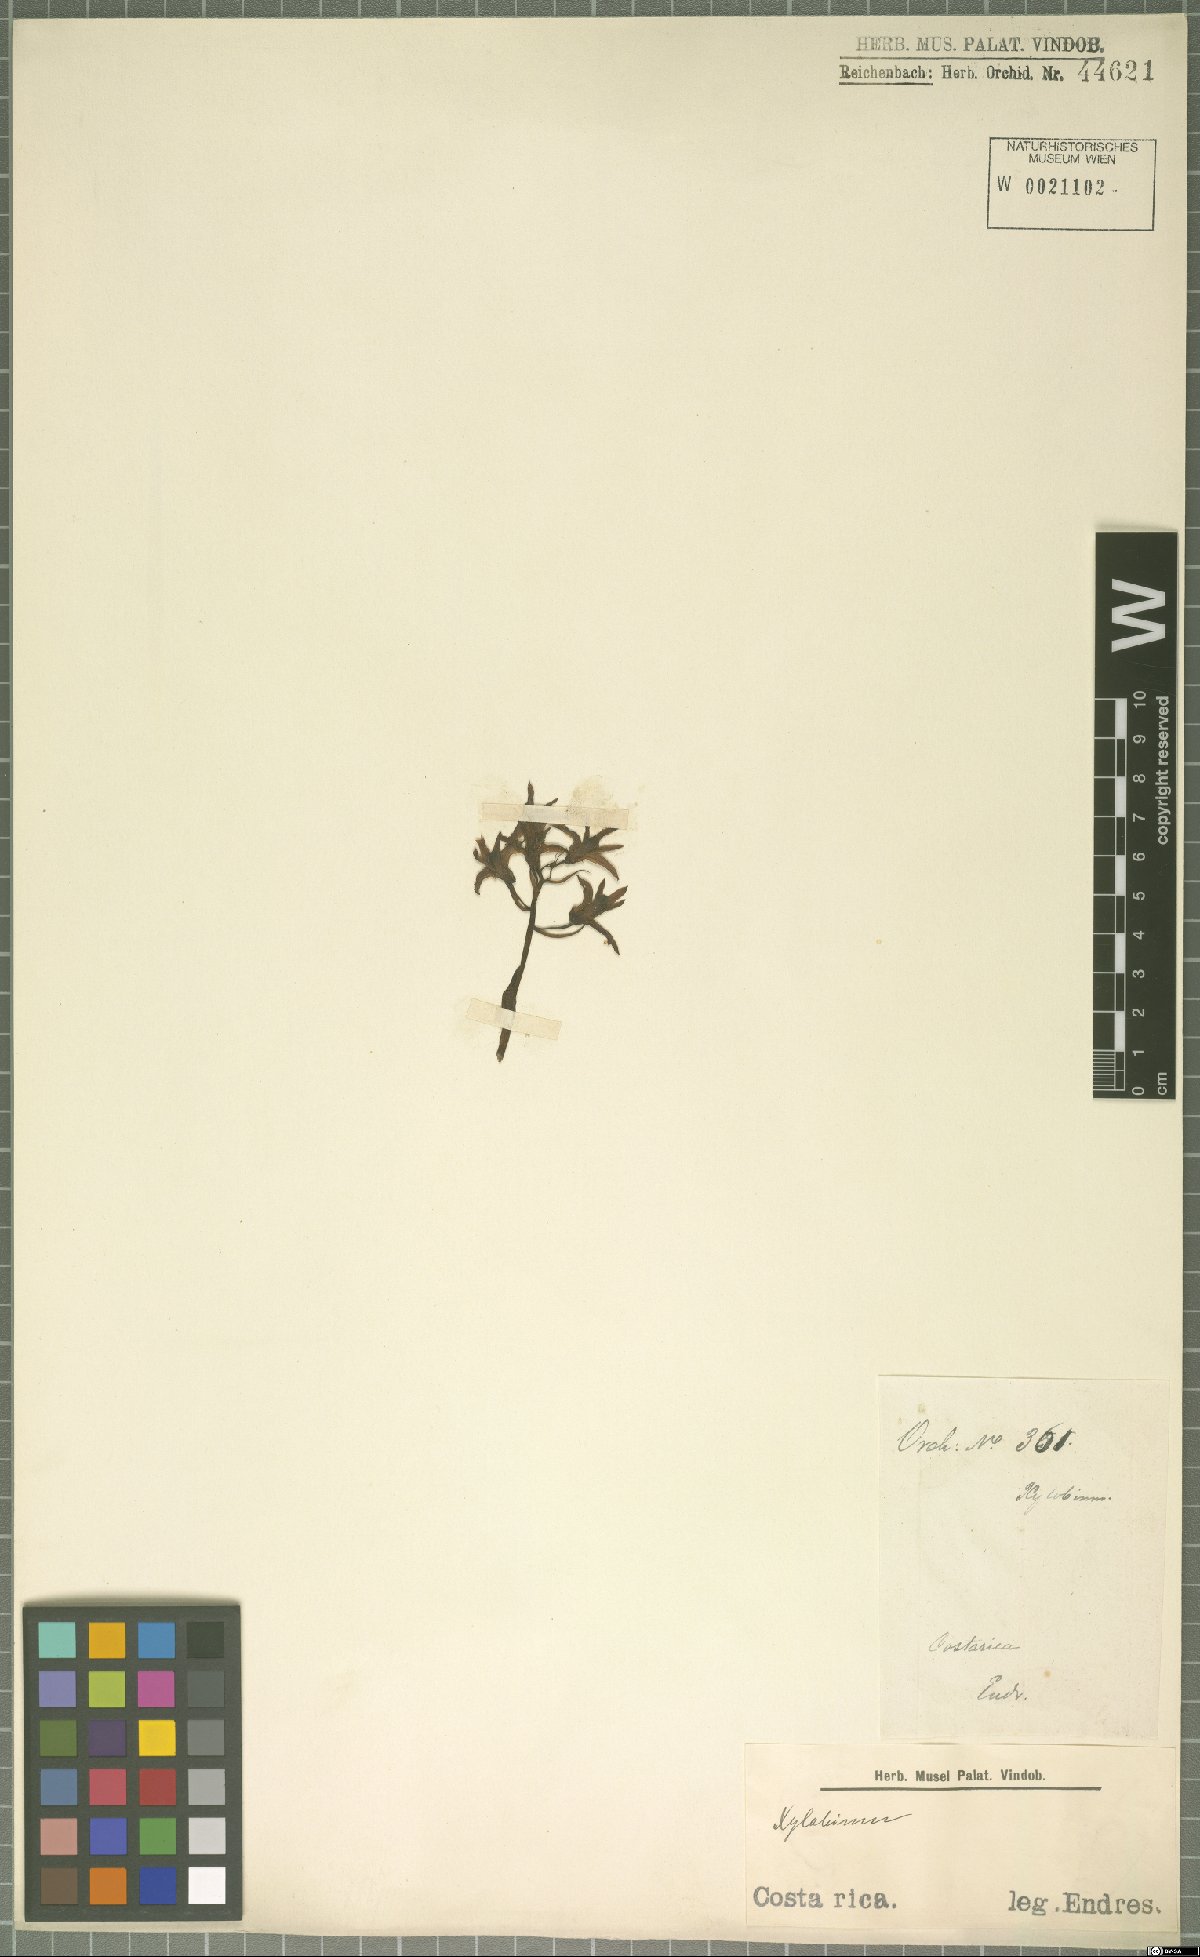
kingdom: Plantae
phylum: Tracheophyta
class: Liliopsida
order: Asparagales
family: Orchidaceae
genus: Xylobium
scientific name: Xylobium
